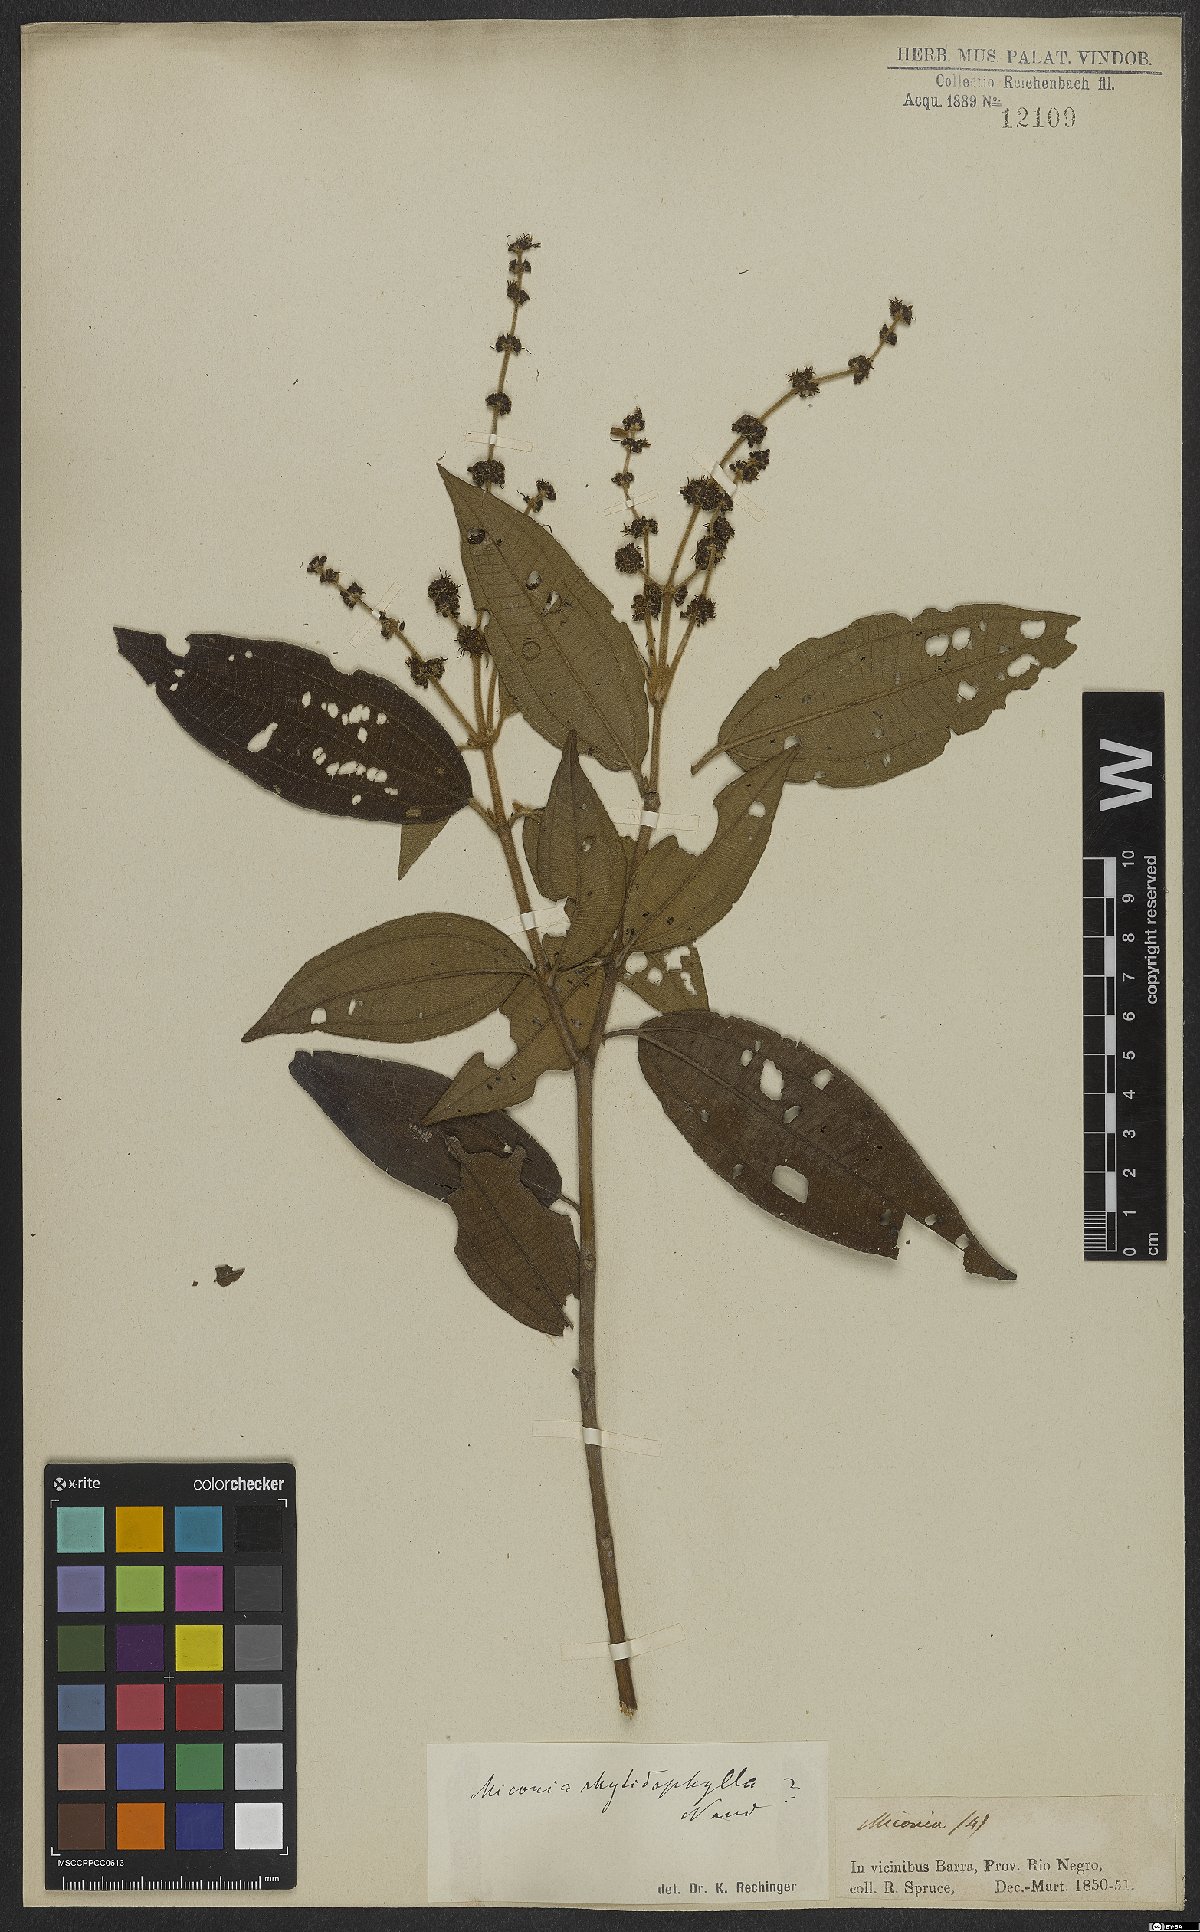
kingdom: Plantae
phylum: Tracheophyta
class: Magnoliopsida
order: Myrtales
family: Melastomataceae
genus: Miconia
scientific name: Miconia rhytidophylla
